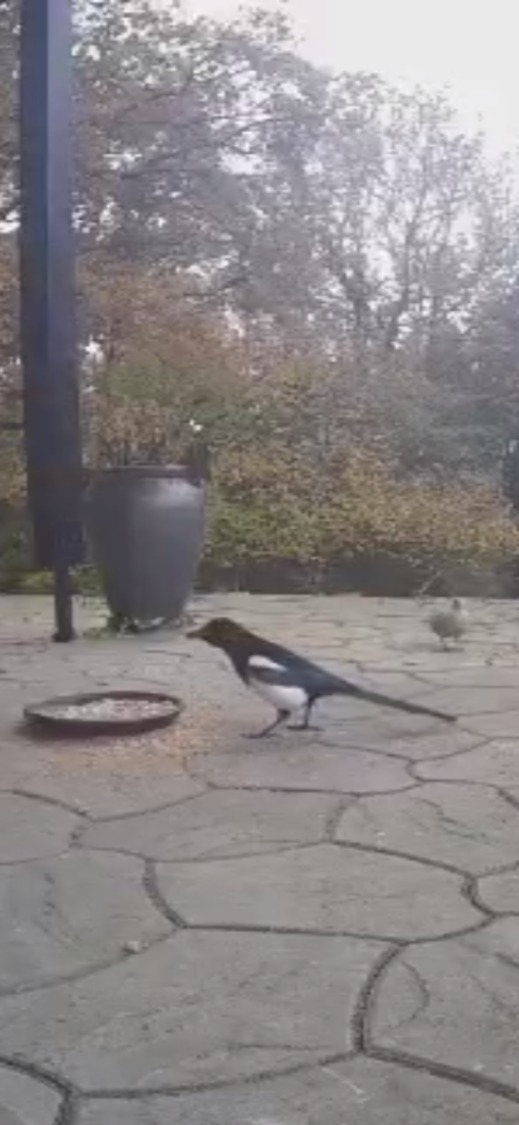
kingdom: Animalia
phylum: Chordata
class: Aves
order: Passeriformes
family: Corvidae
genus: Pica
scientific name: Pica pica
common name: Husskade
